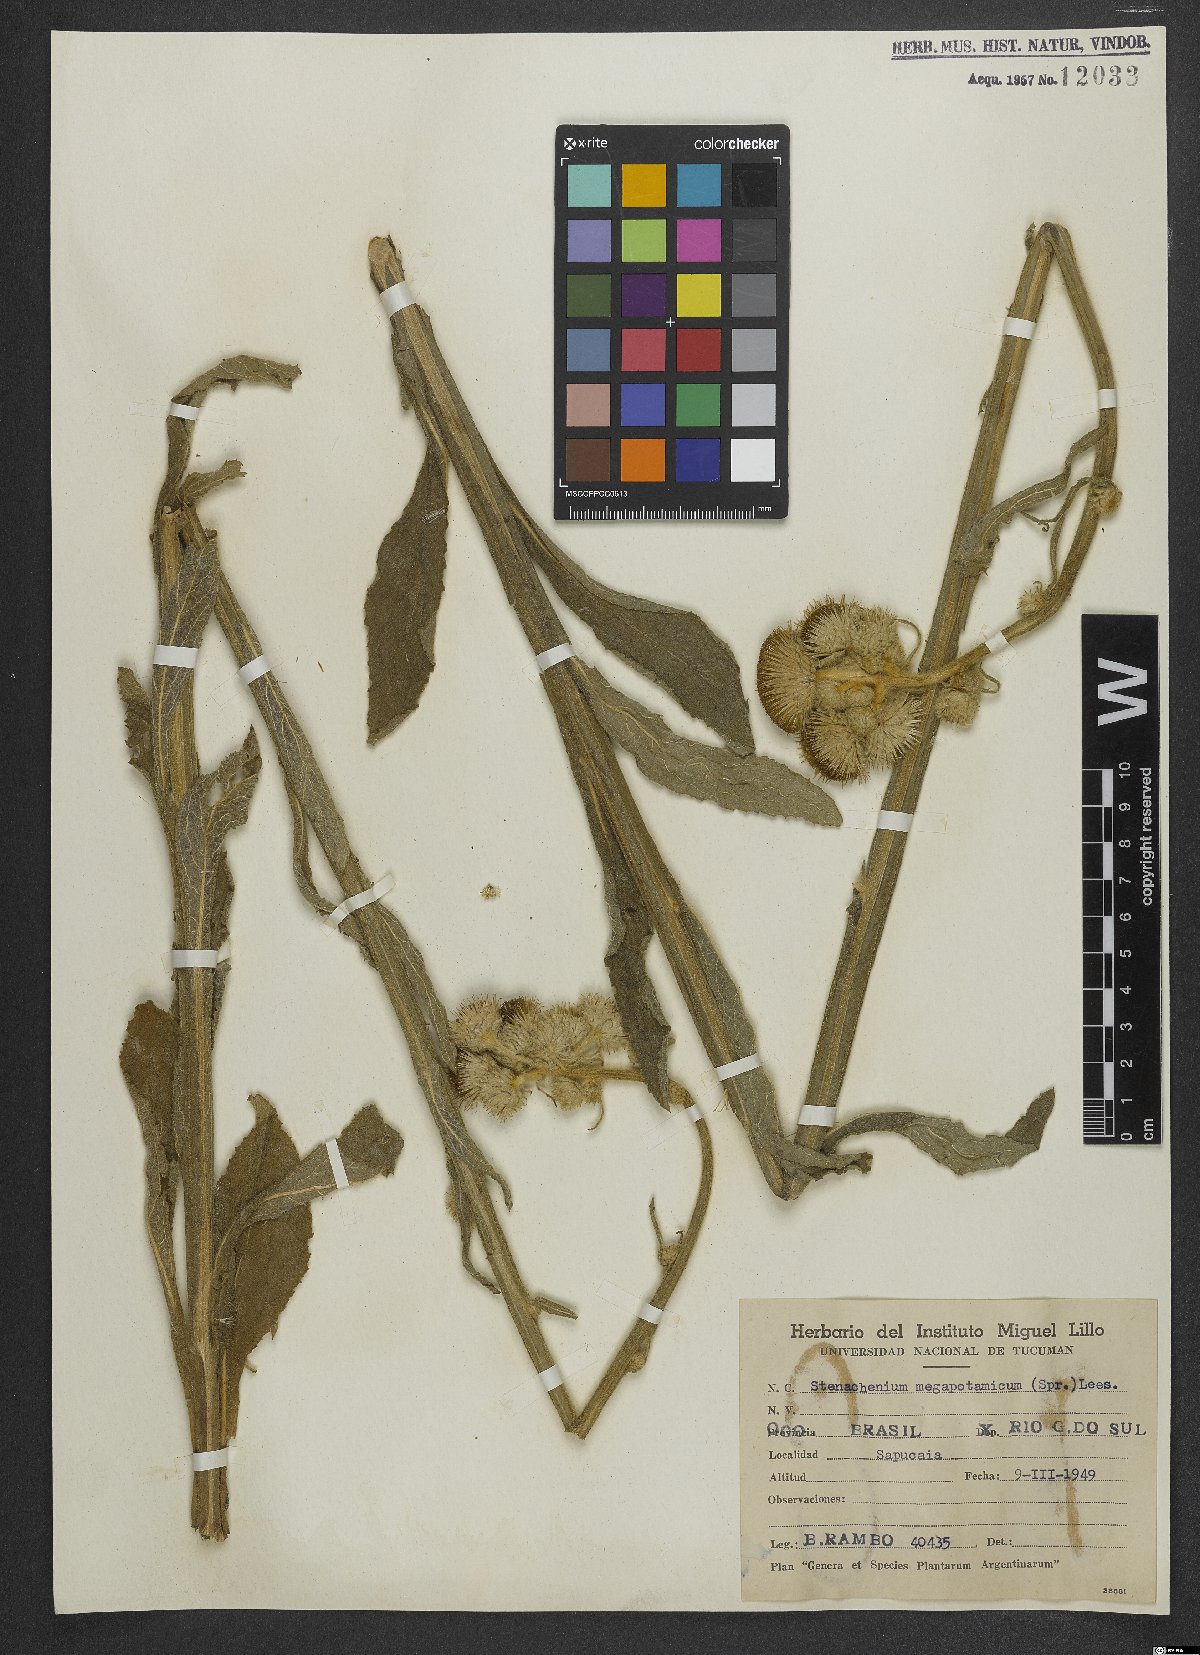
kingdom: Plantae
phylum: Tracheophyta
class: Magnoliopsida
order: Asterales
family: Asteraceae
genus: Stenachaenium
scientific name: Stenachaenium megapotamicum
